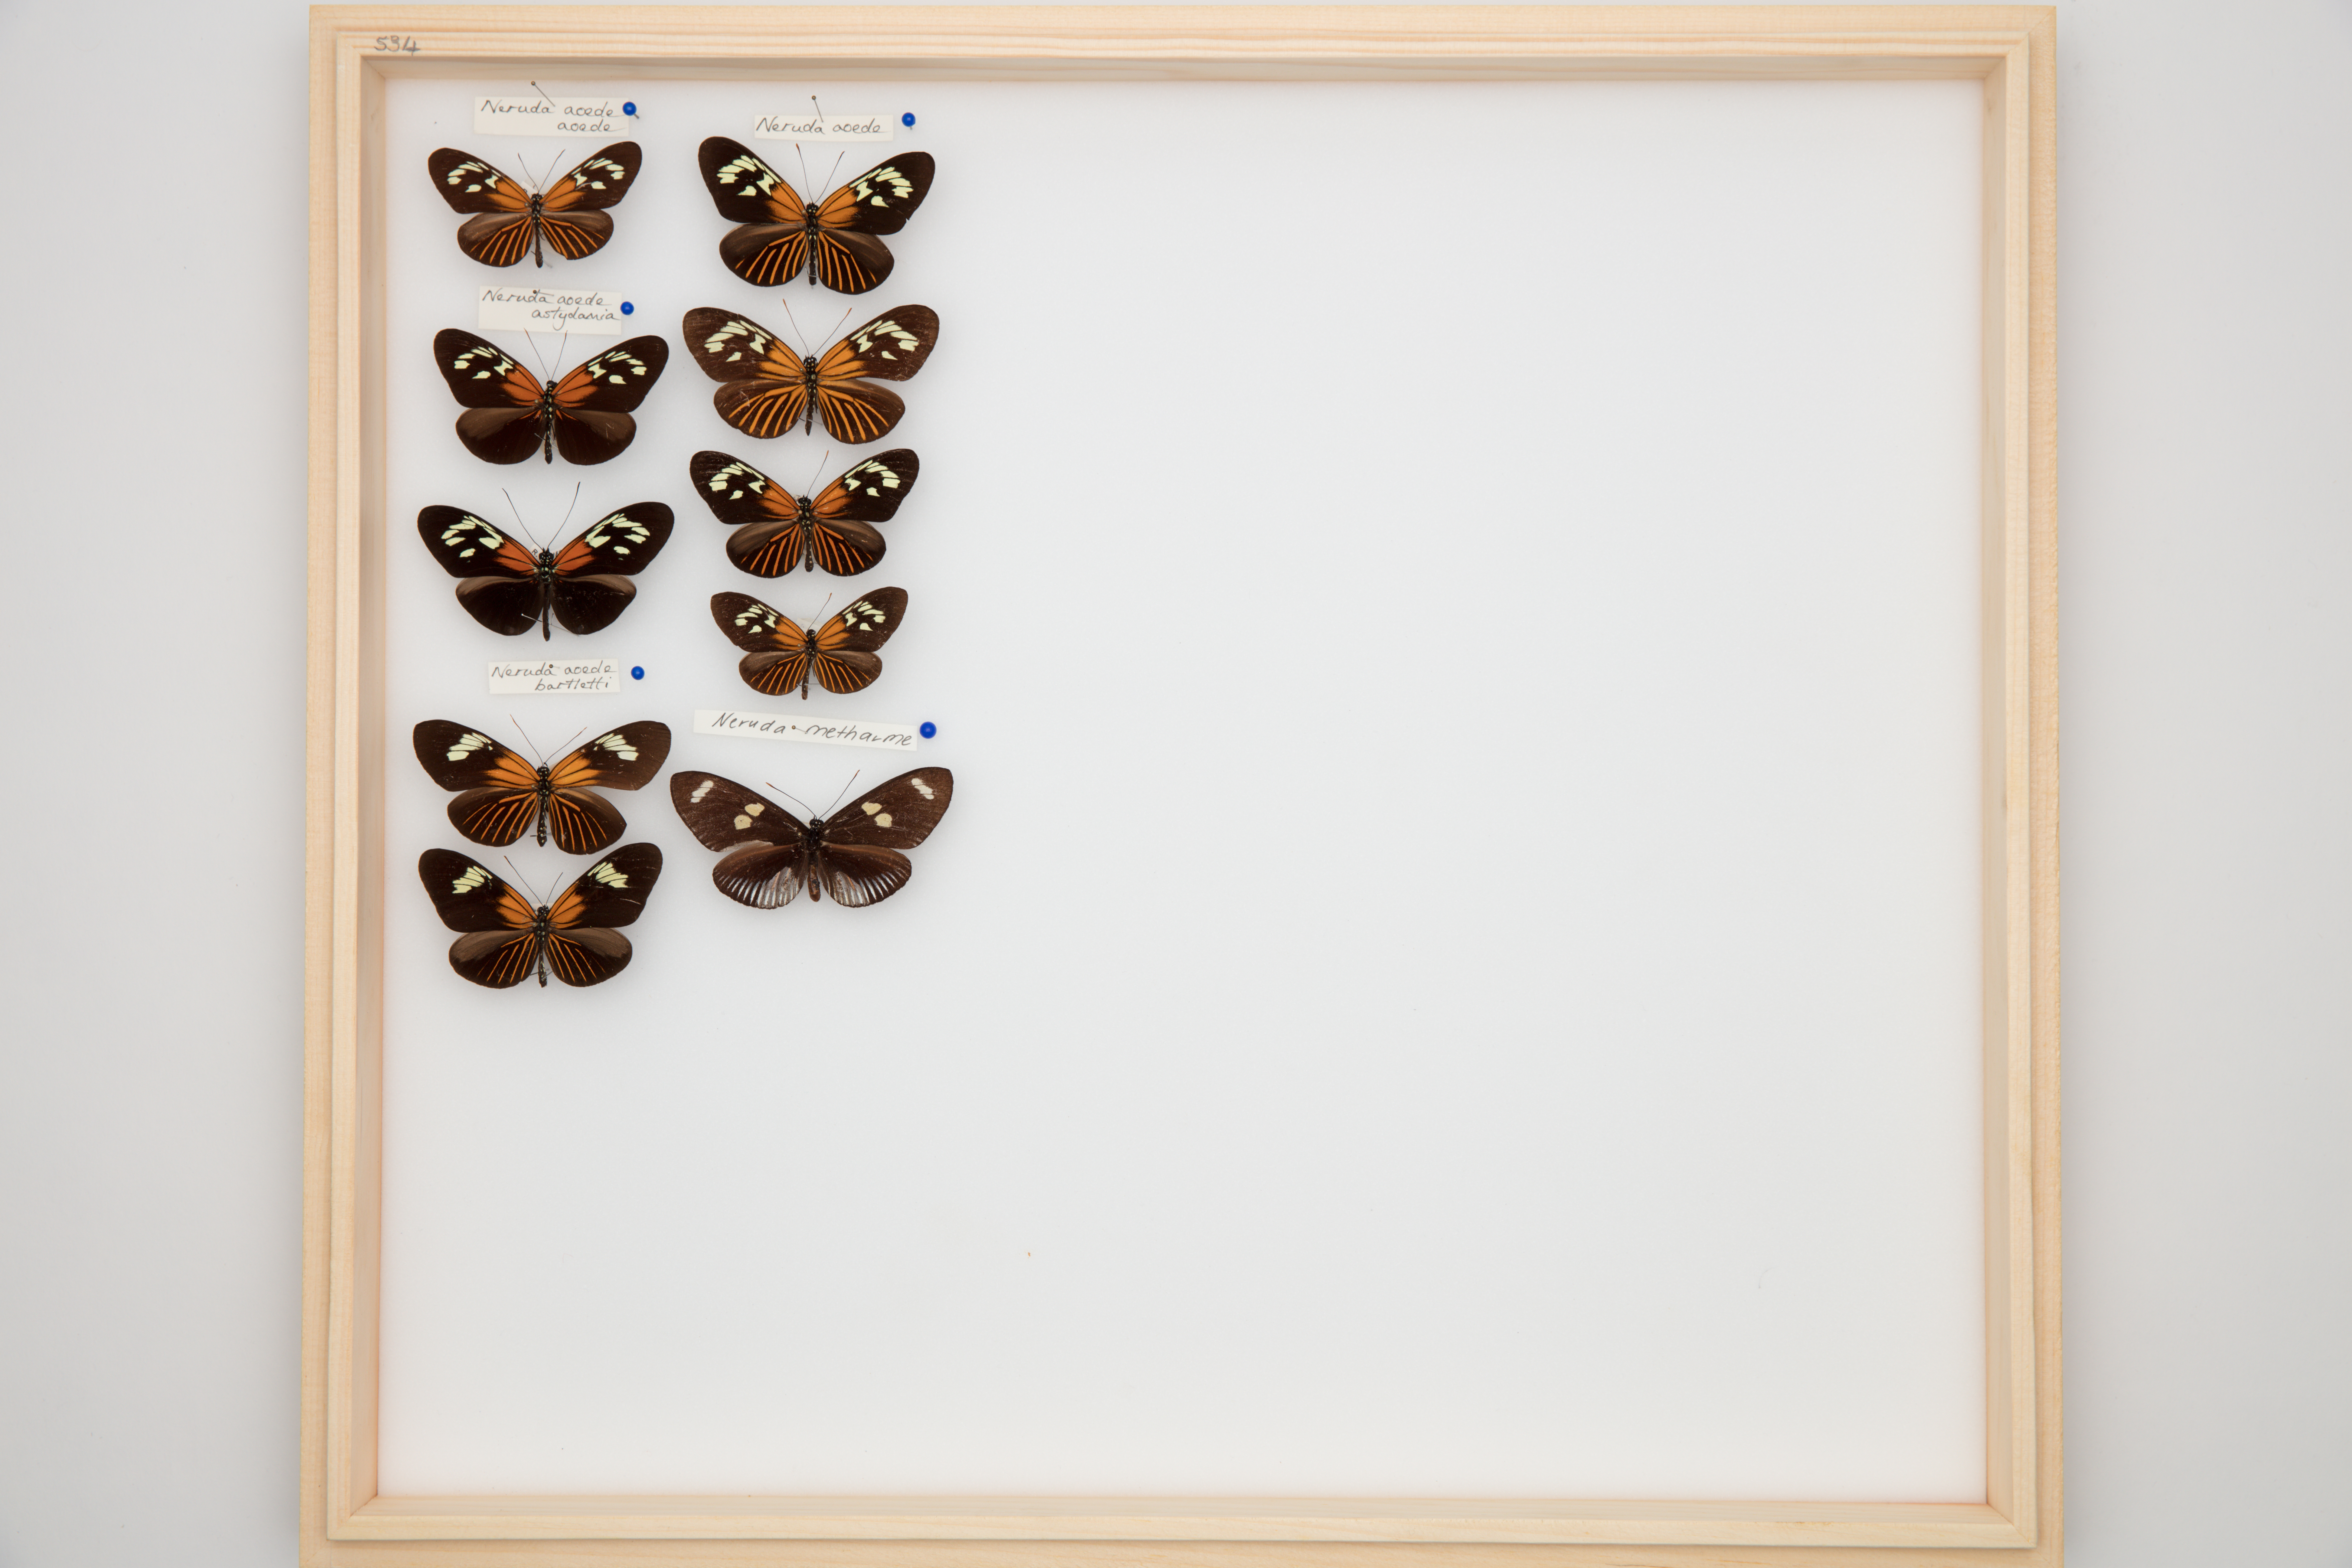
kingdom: Animalia
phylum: Arthropoda
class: Insecta
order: Lepidoptera
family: Nymphalidae
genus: Heliconius
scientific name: Heliconius aoede
